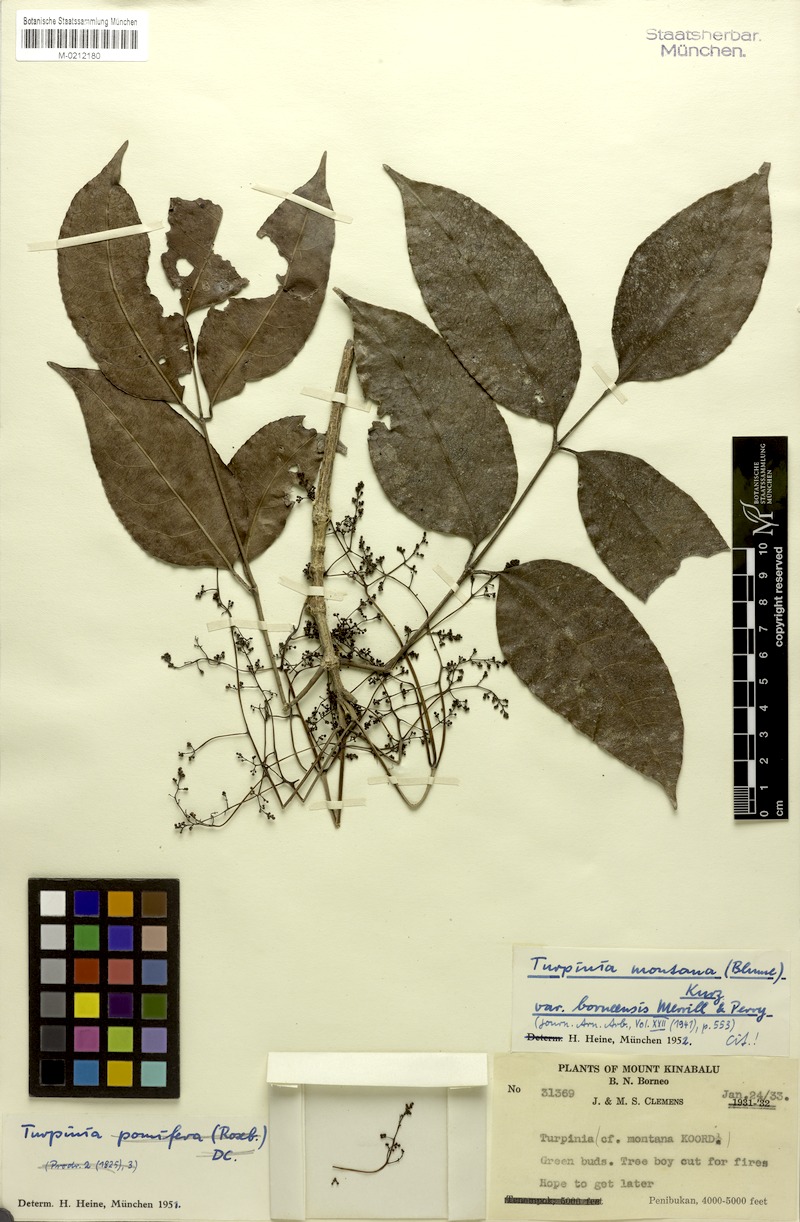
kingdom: Plantae
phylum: Tracheophyta
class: Magnoliopsida
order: Crossosomatales
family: Staphyleaceae
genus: Dalrympelea
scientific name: Dalrympelea borneensis
